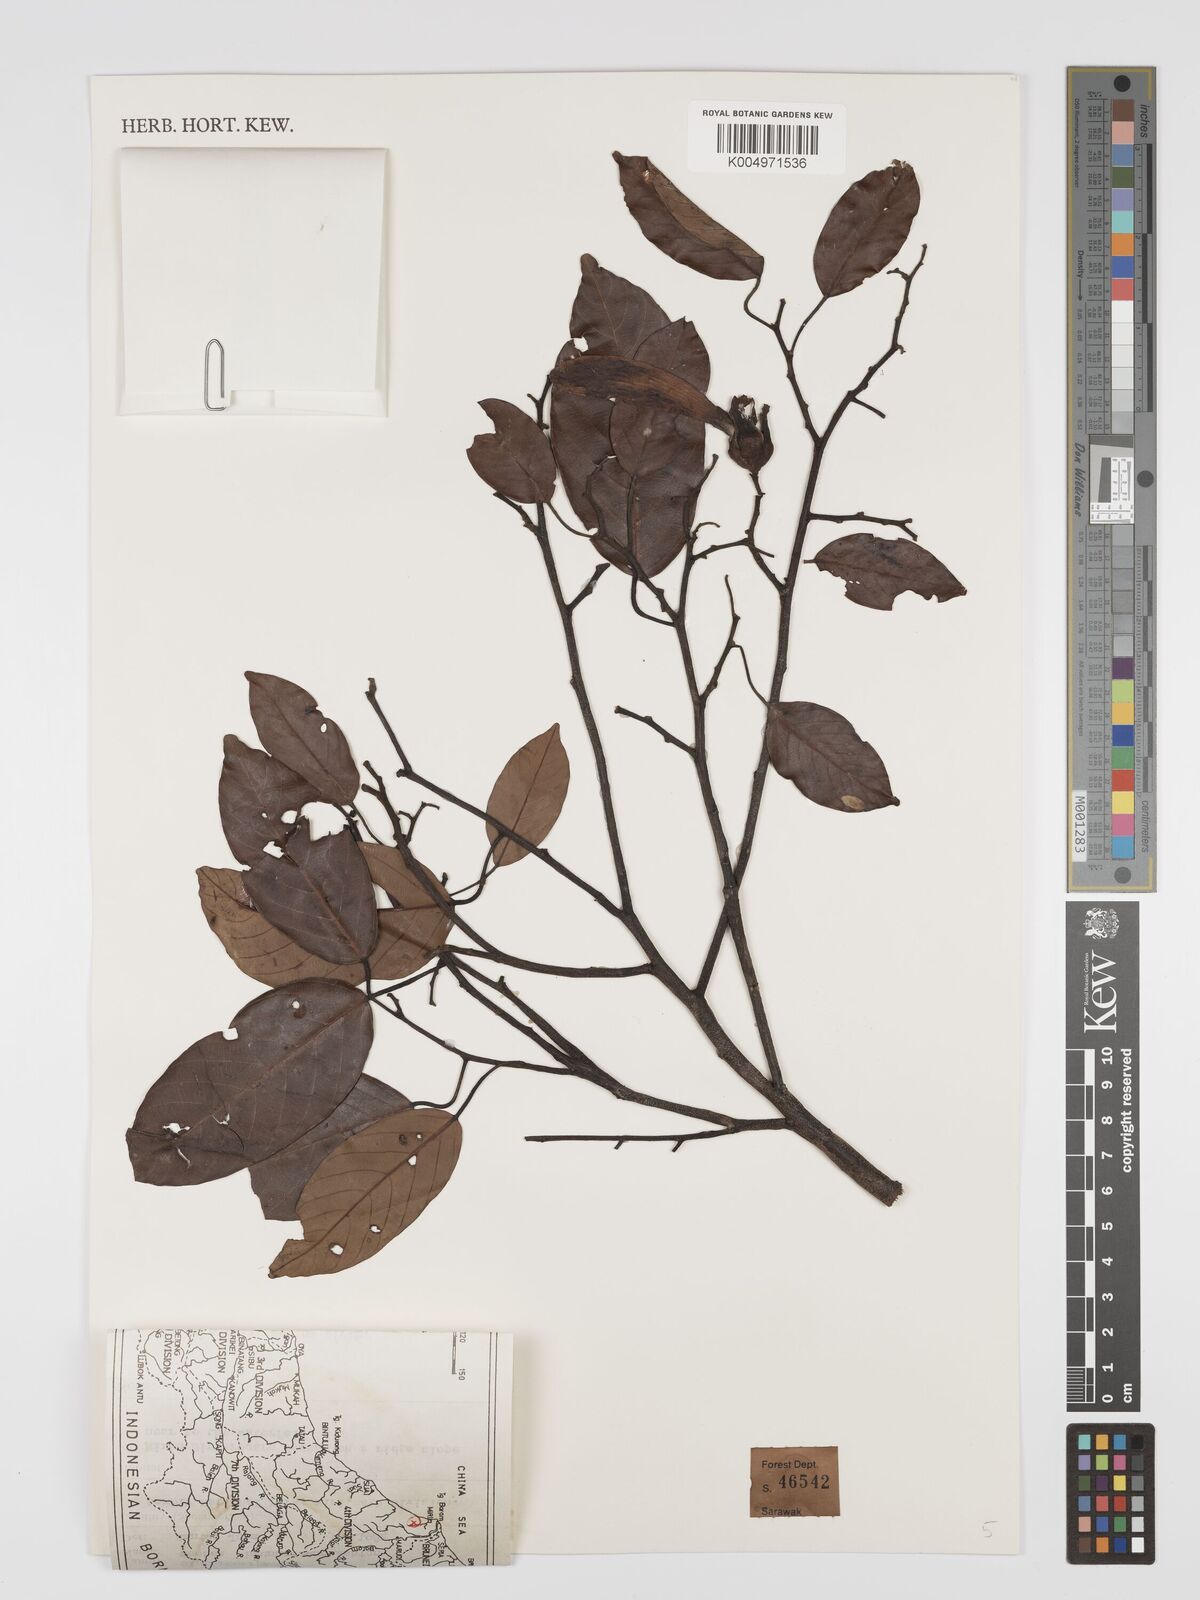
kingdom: Plantae
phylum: Tracheophyta
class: Magnoliopsida
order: Malvales
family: Dipterocarpaceae
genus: Shorea
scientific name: Shorea brunnescens
